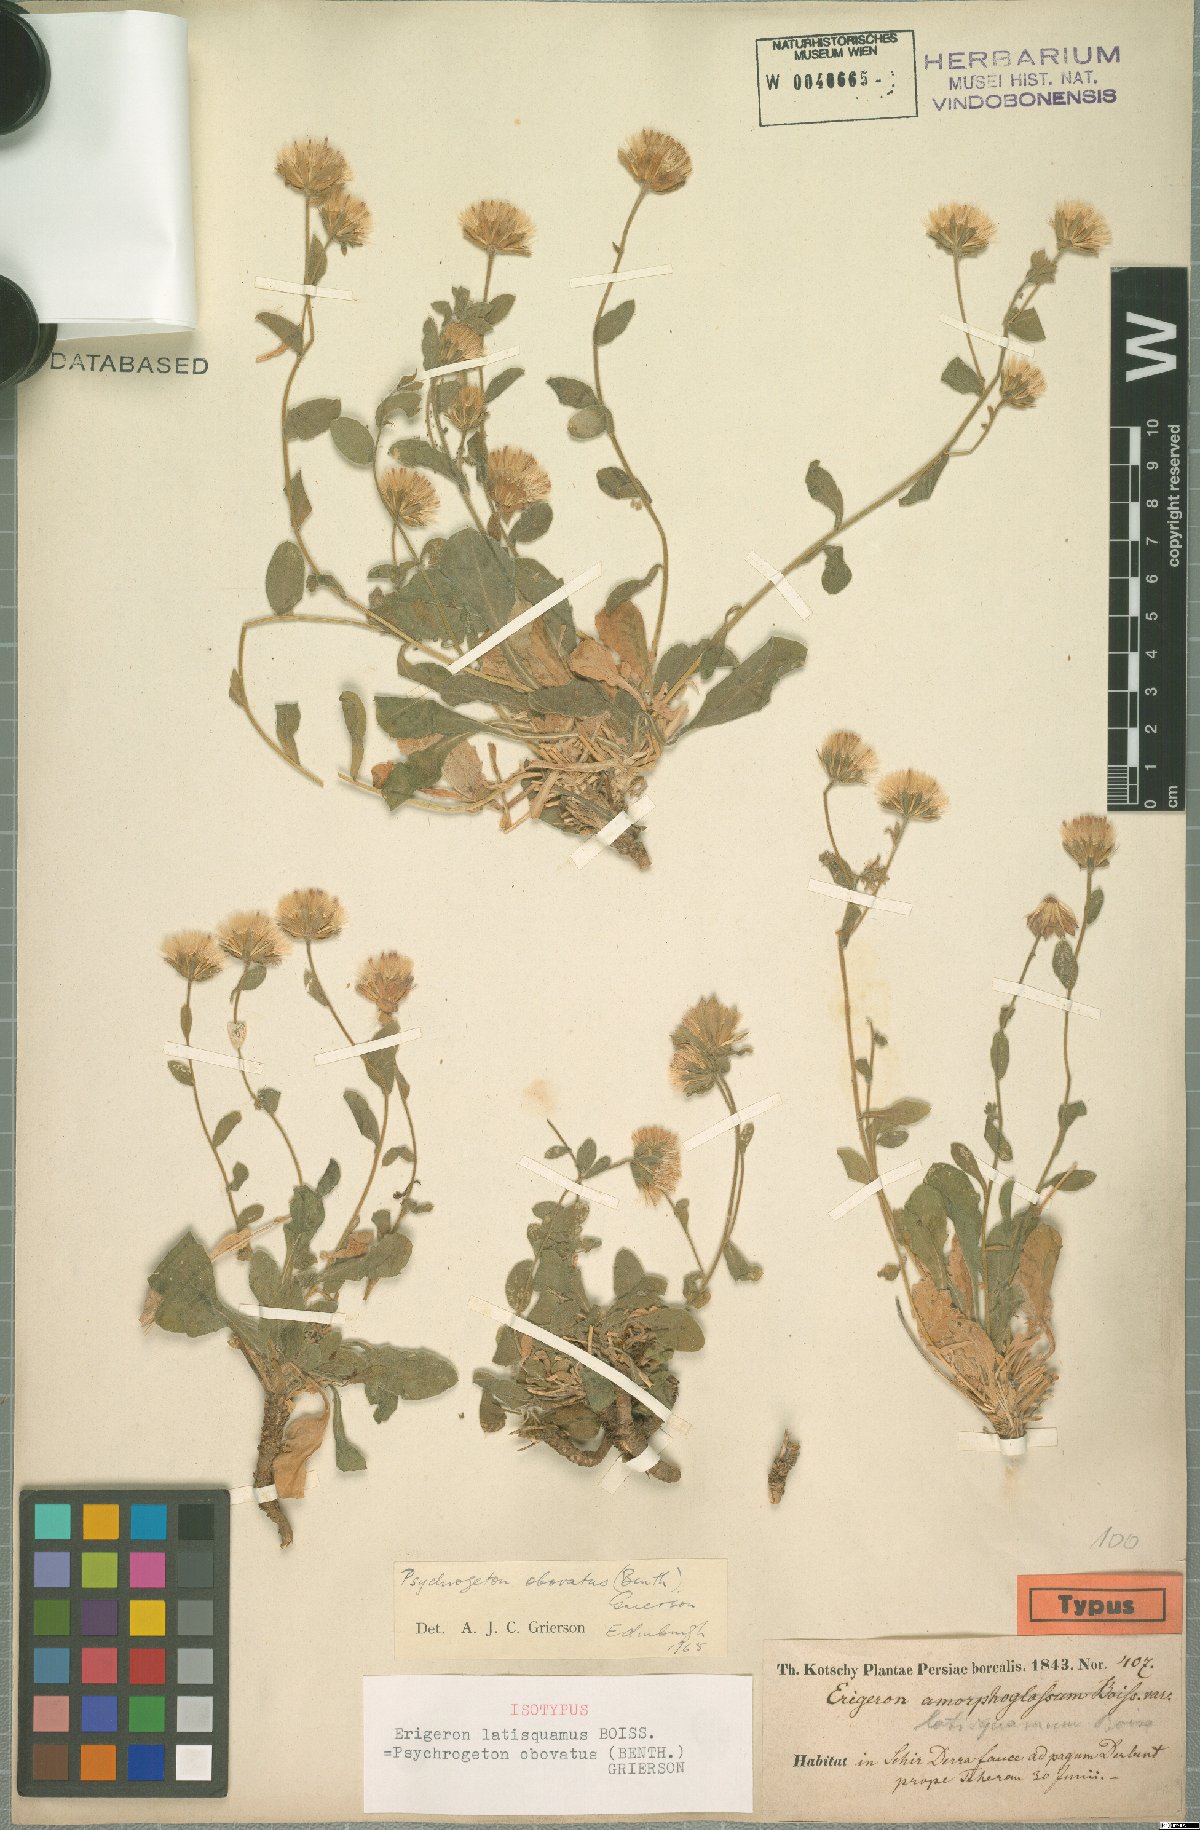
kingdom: Plantae
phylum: Tracheophyta
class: Magnoliopsida
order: Asterales
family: Asteraceae
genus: Neobrachyactis
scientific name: Neobrachyactis obovata
